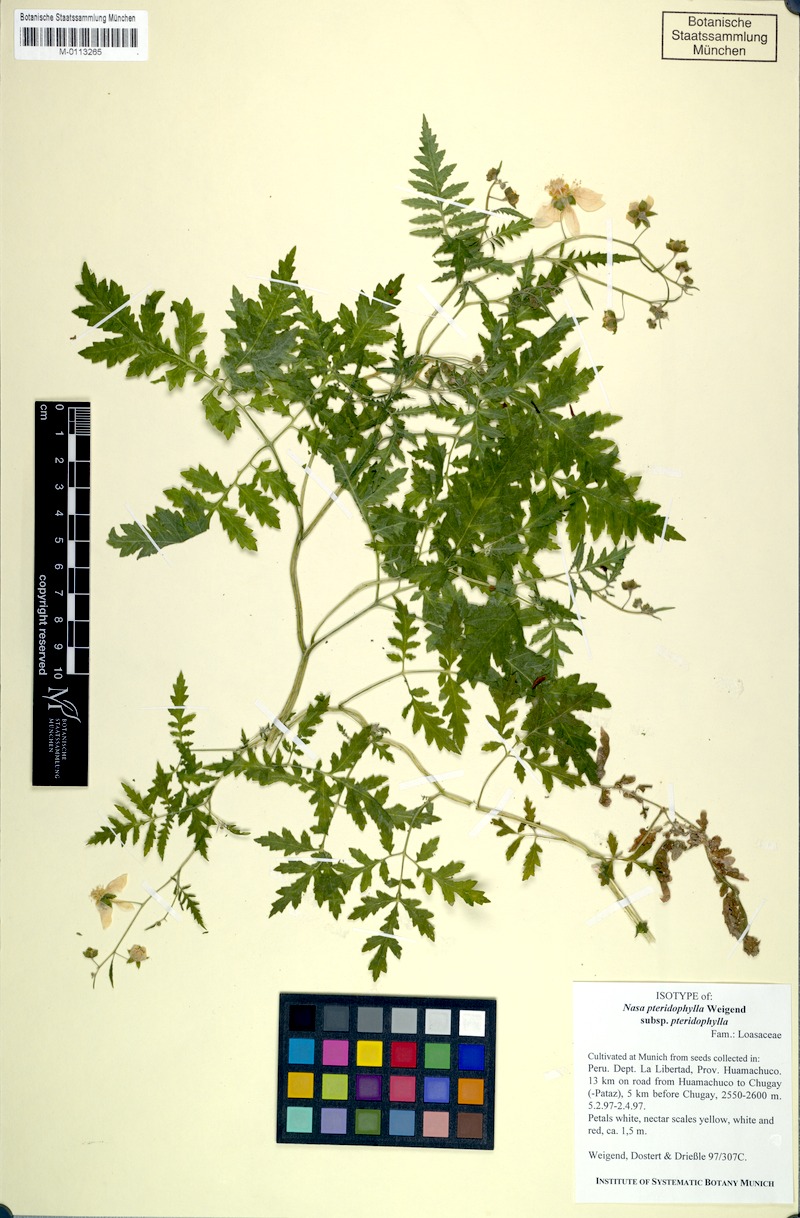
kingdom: Plantae
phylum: Tracheophyta
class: Magnoliopsida
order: Cornales
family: Loasaceae
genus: Nasa
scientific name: Nasa pteridophylla
